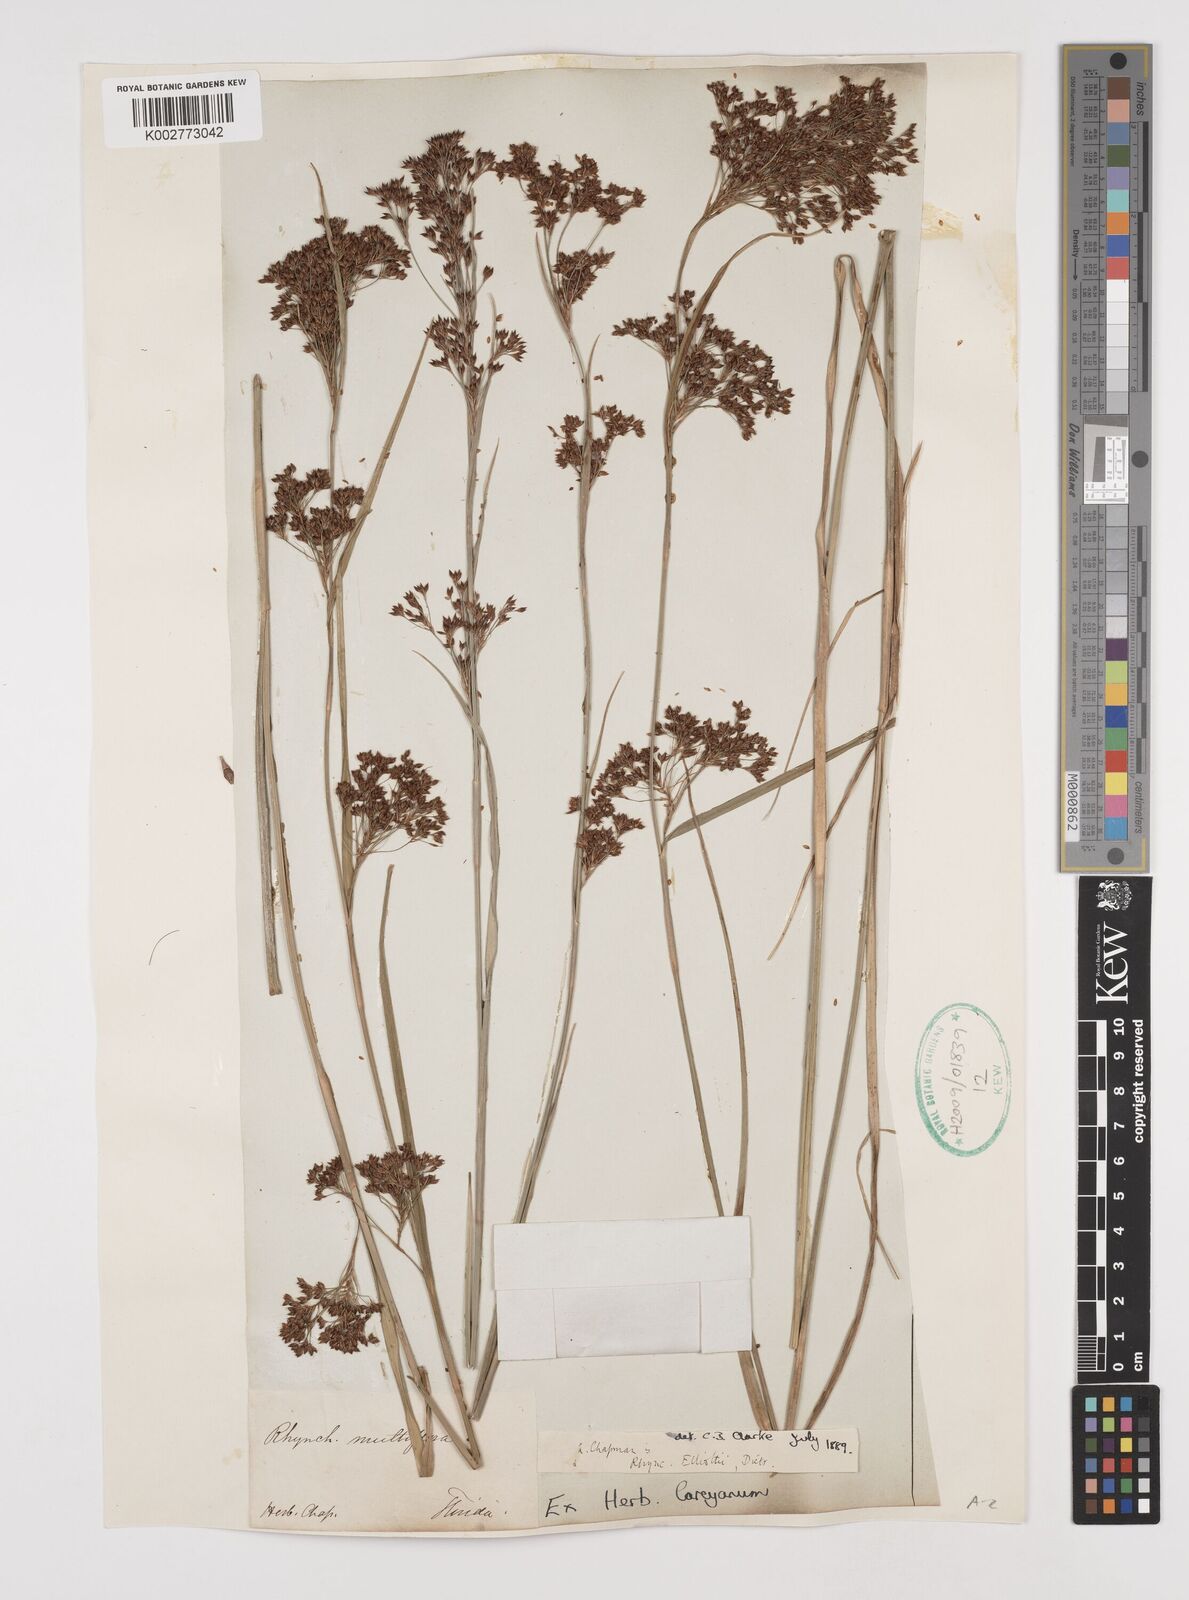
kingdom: Plantae
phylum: Tracheophyta
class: Liliopsida
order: Poales
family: Cyperaceae
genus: Rhynchospora
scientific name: Rhynchospora elliottii
